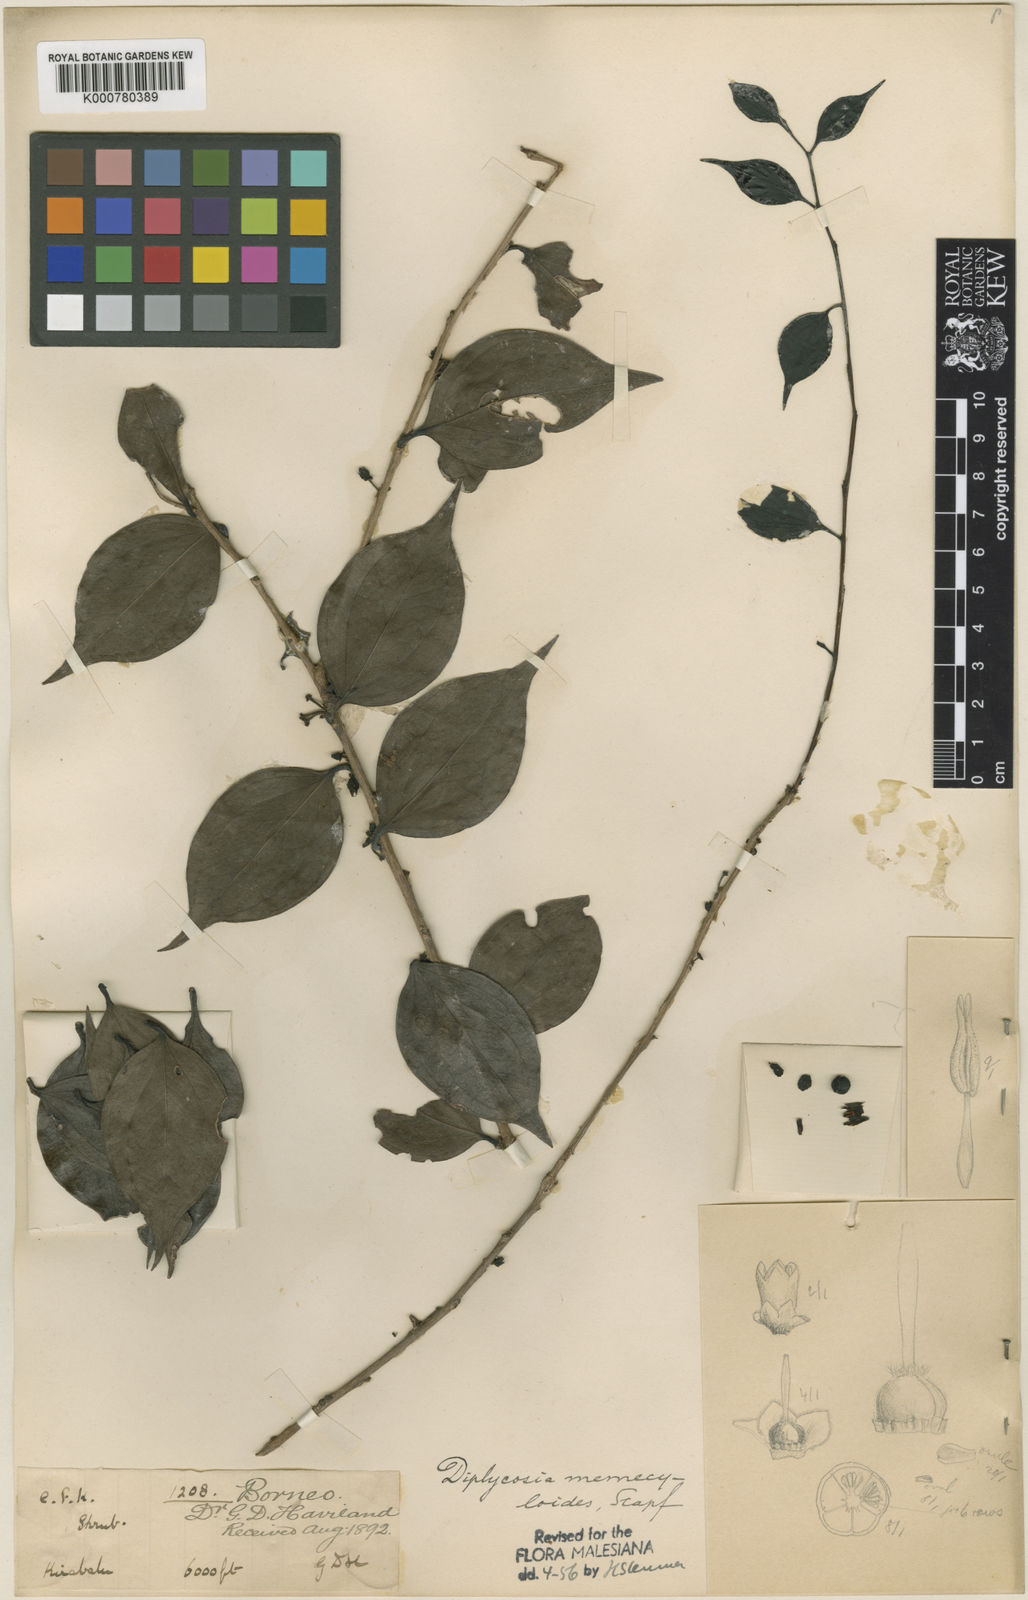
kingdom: Plantae
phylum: Tracheophyta
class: Magnoliopsida
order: Ericales
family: Ericaceae
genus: Gaultheria
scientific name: Gaultheria memecyloides
